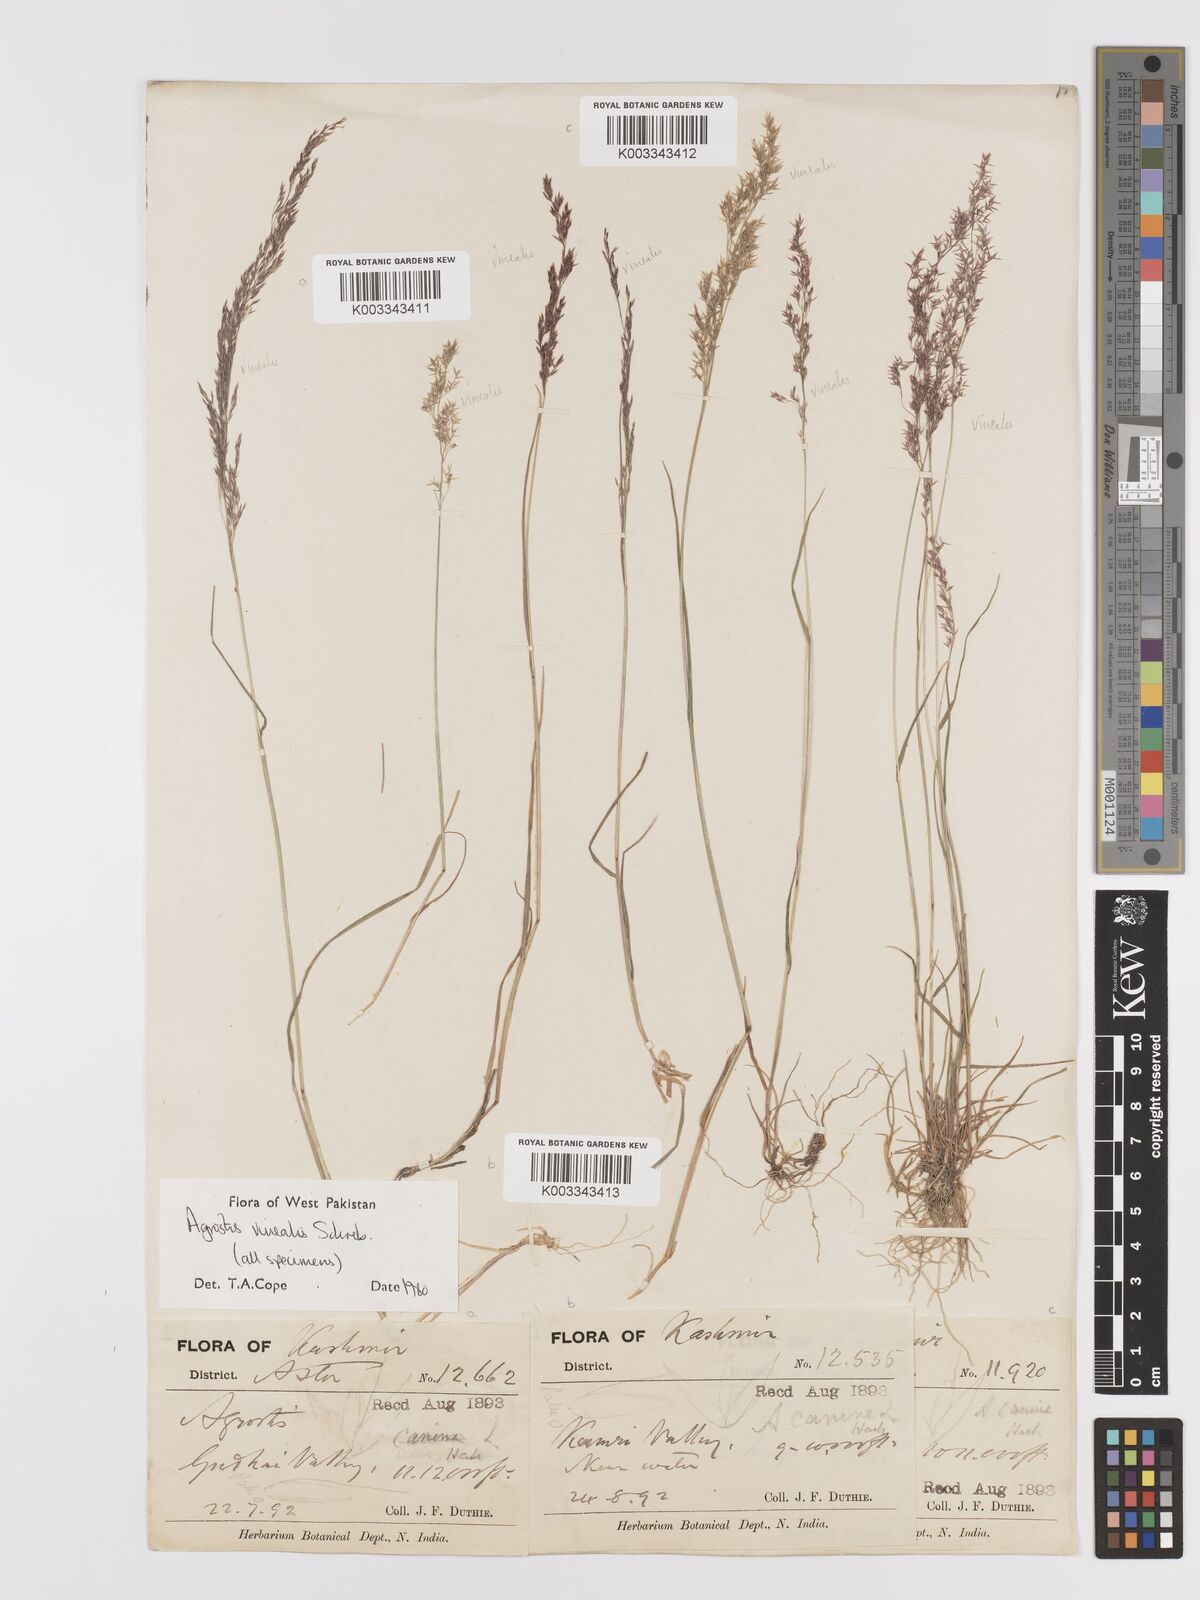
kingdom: Plantae
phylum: Tracheophyta
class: Liliopsida
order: Poales
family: Poaceae
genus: Agrostis
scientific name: Agrostis vinealis
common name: Brown bent
